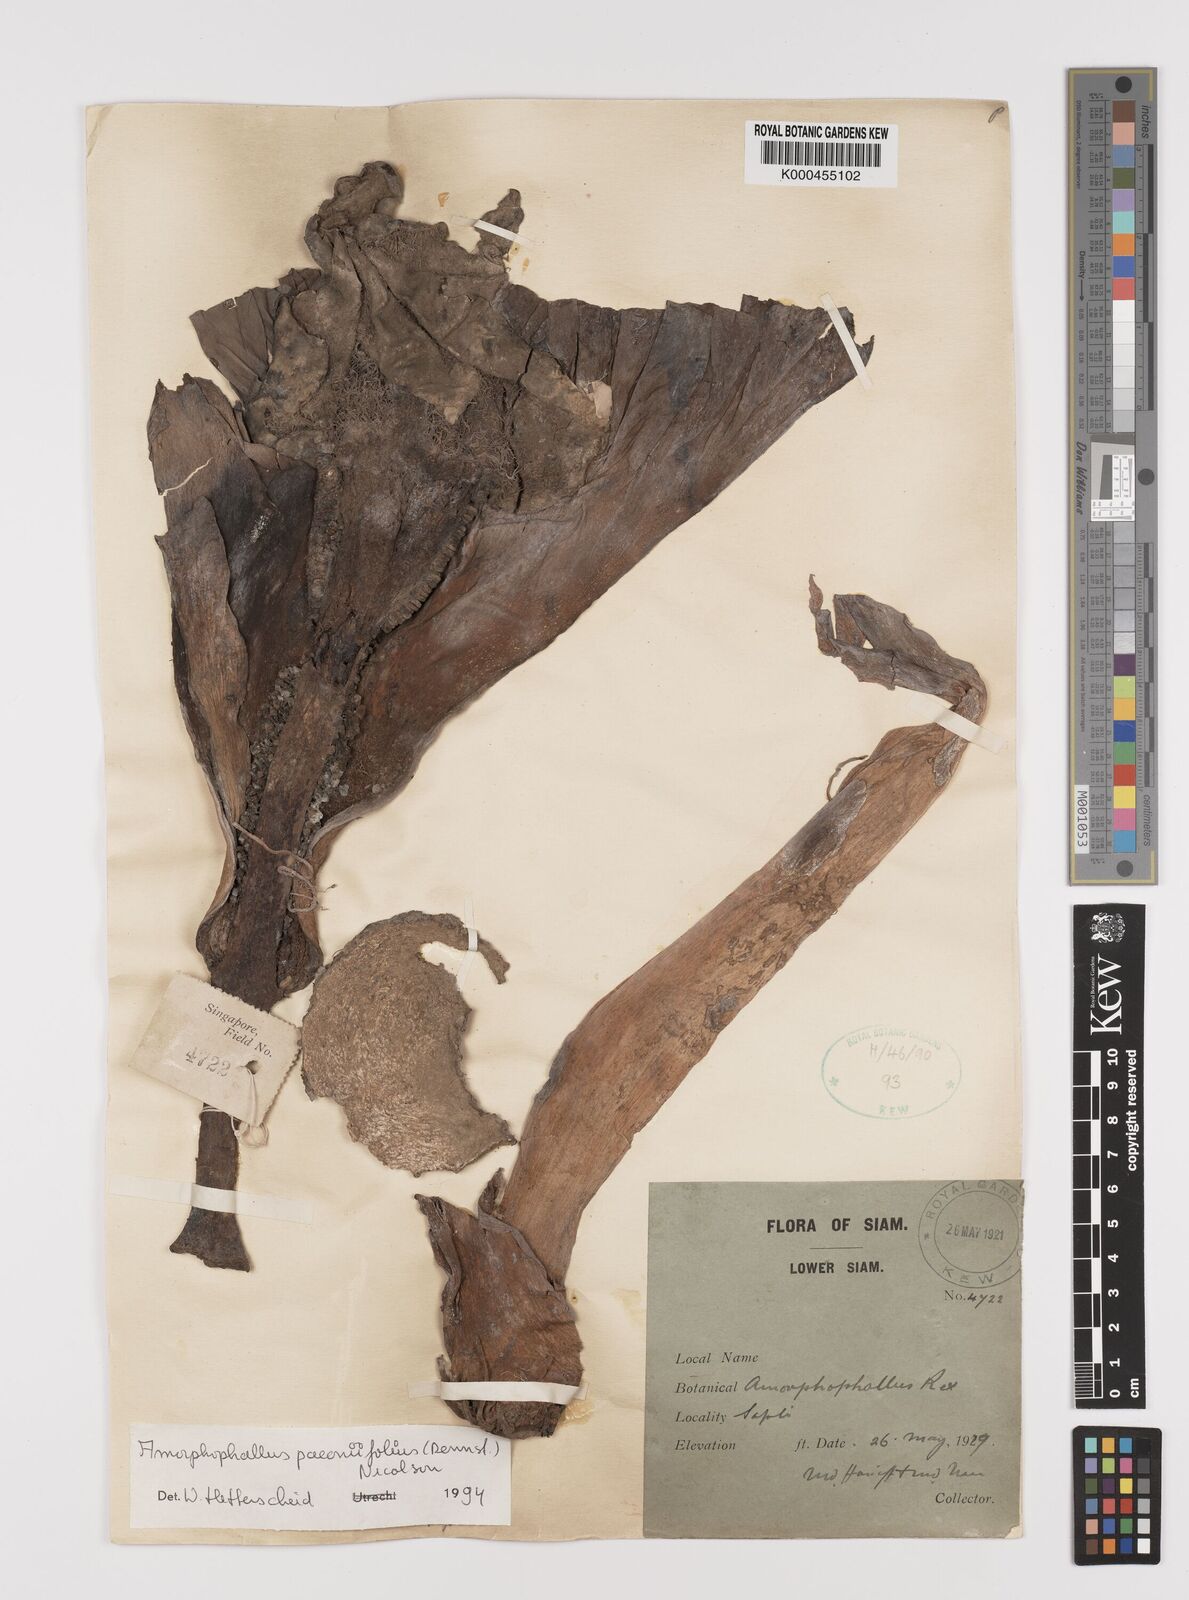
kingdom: Plantae
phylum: Tracheophyta
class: Liliopsida
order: Alismatales
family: Araceae
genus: Amorphophallus
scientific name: Amorphophallus paeoniifolius
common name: Telinga-potato
